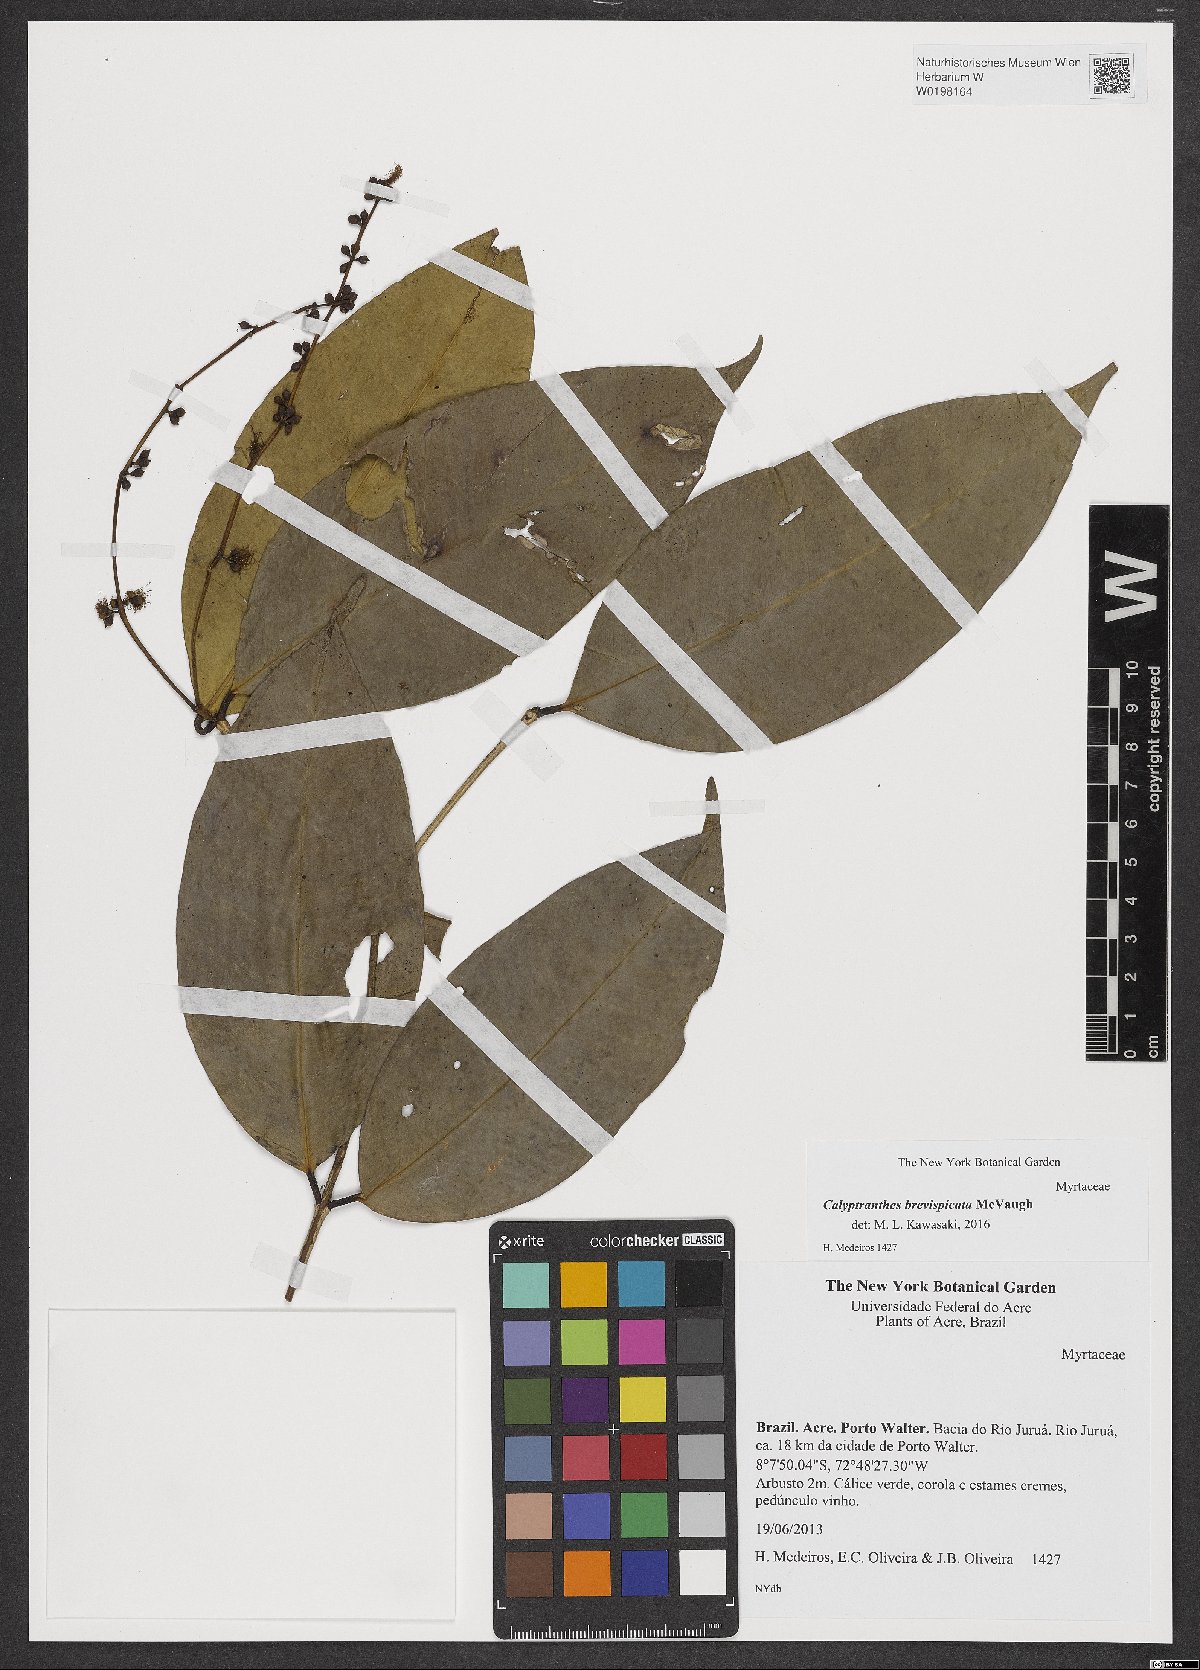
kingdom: Plantae
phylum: Tracheophyta
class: Magnoliopsida
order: Myrtales
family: Myrtaceae
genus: Myrcia
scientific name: Myrcia brevispicata
